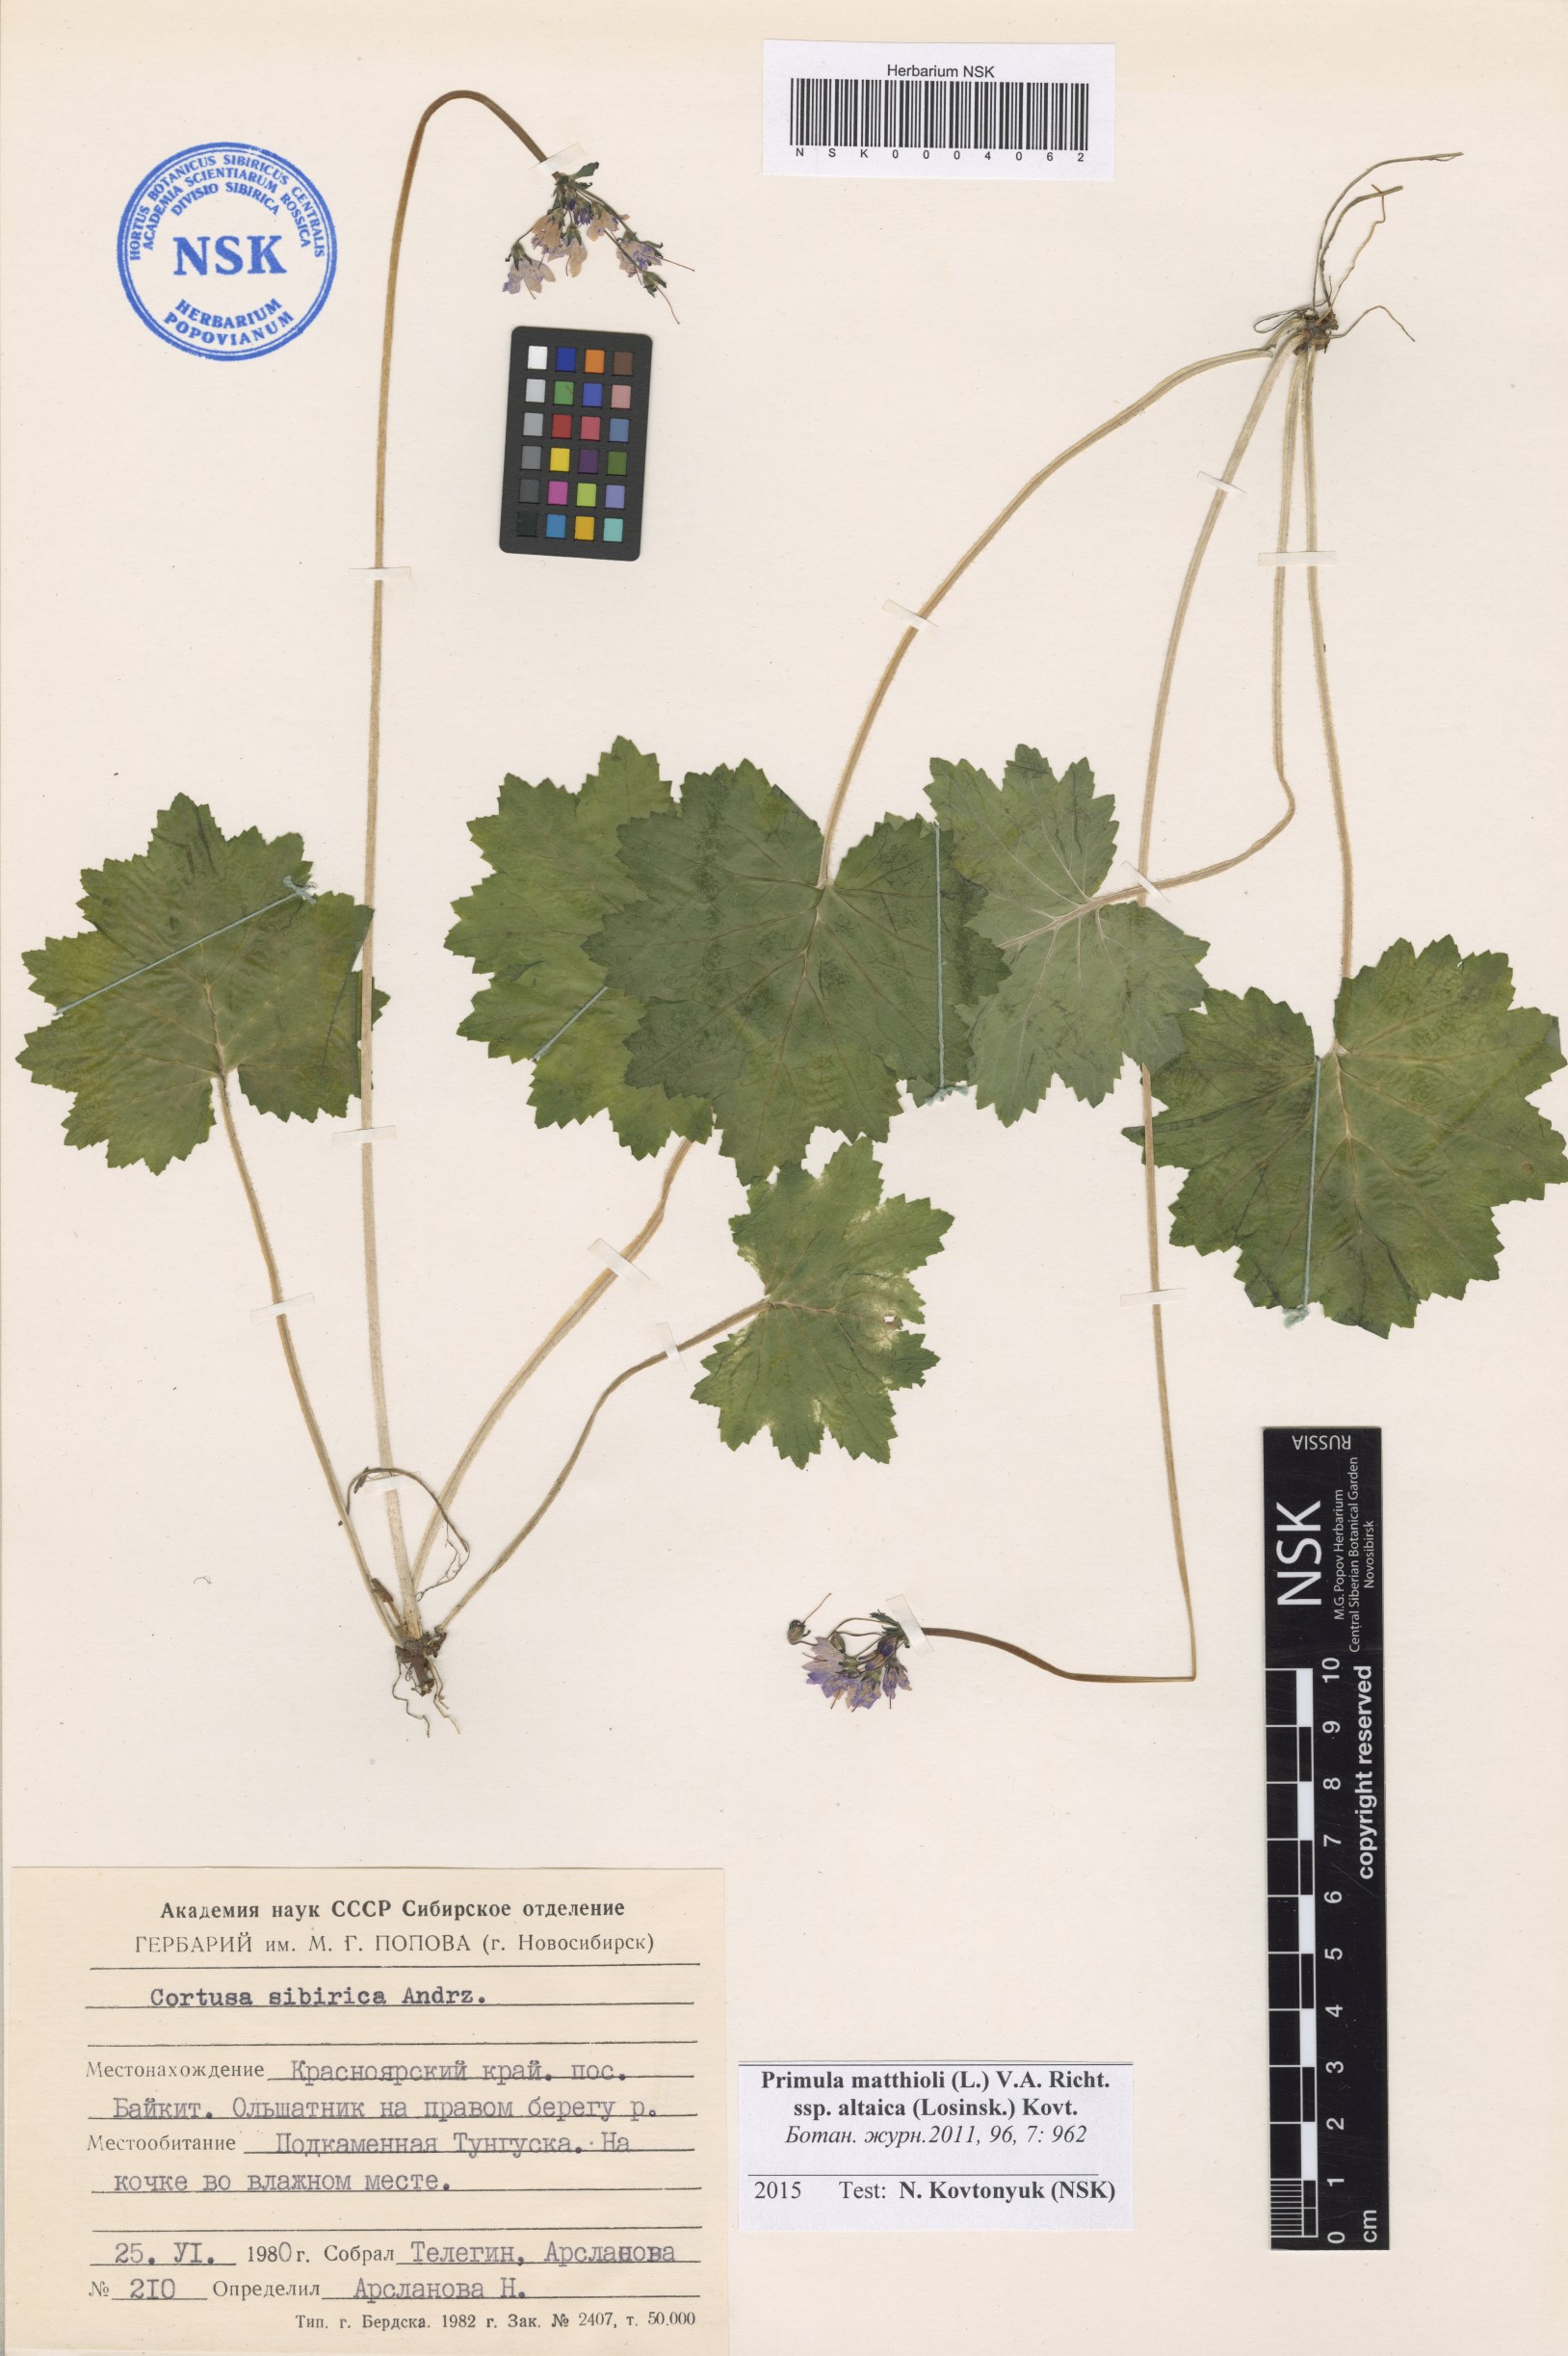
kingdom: Plantae
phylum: Tracheophyta
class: Magnoliopsida
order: Ericales
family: Primulaceae
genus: Primula
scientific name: Primula matthioli
